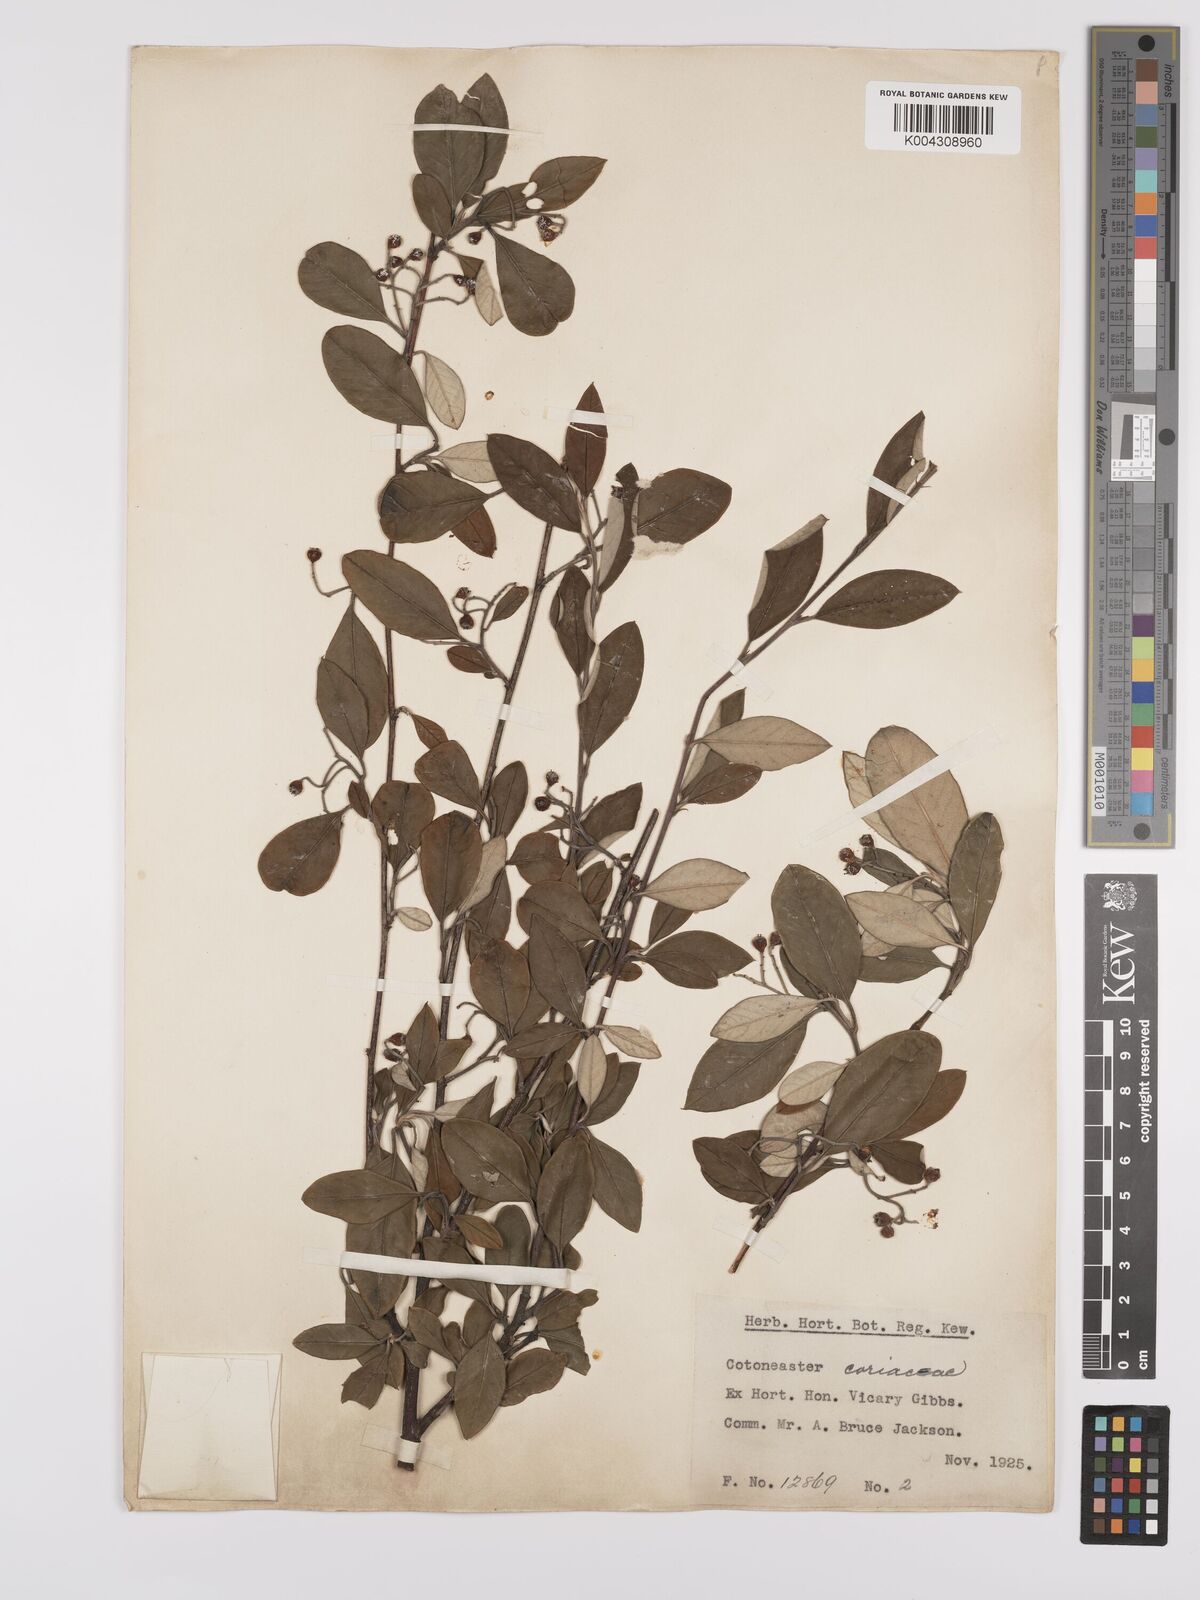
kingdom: Plantae
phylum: Tracheophyta
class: Magnoliopsida
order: Rosales
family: Rosaceae
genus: Cotoneaster
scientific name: Cotoneaster pannosus
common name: Silverleaf cotoneaster
